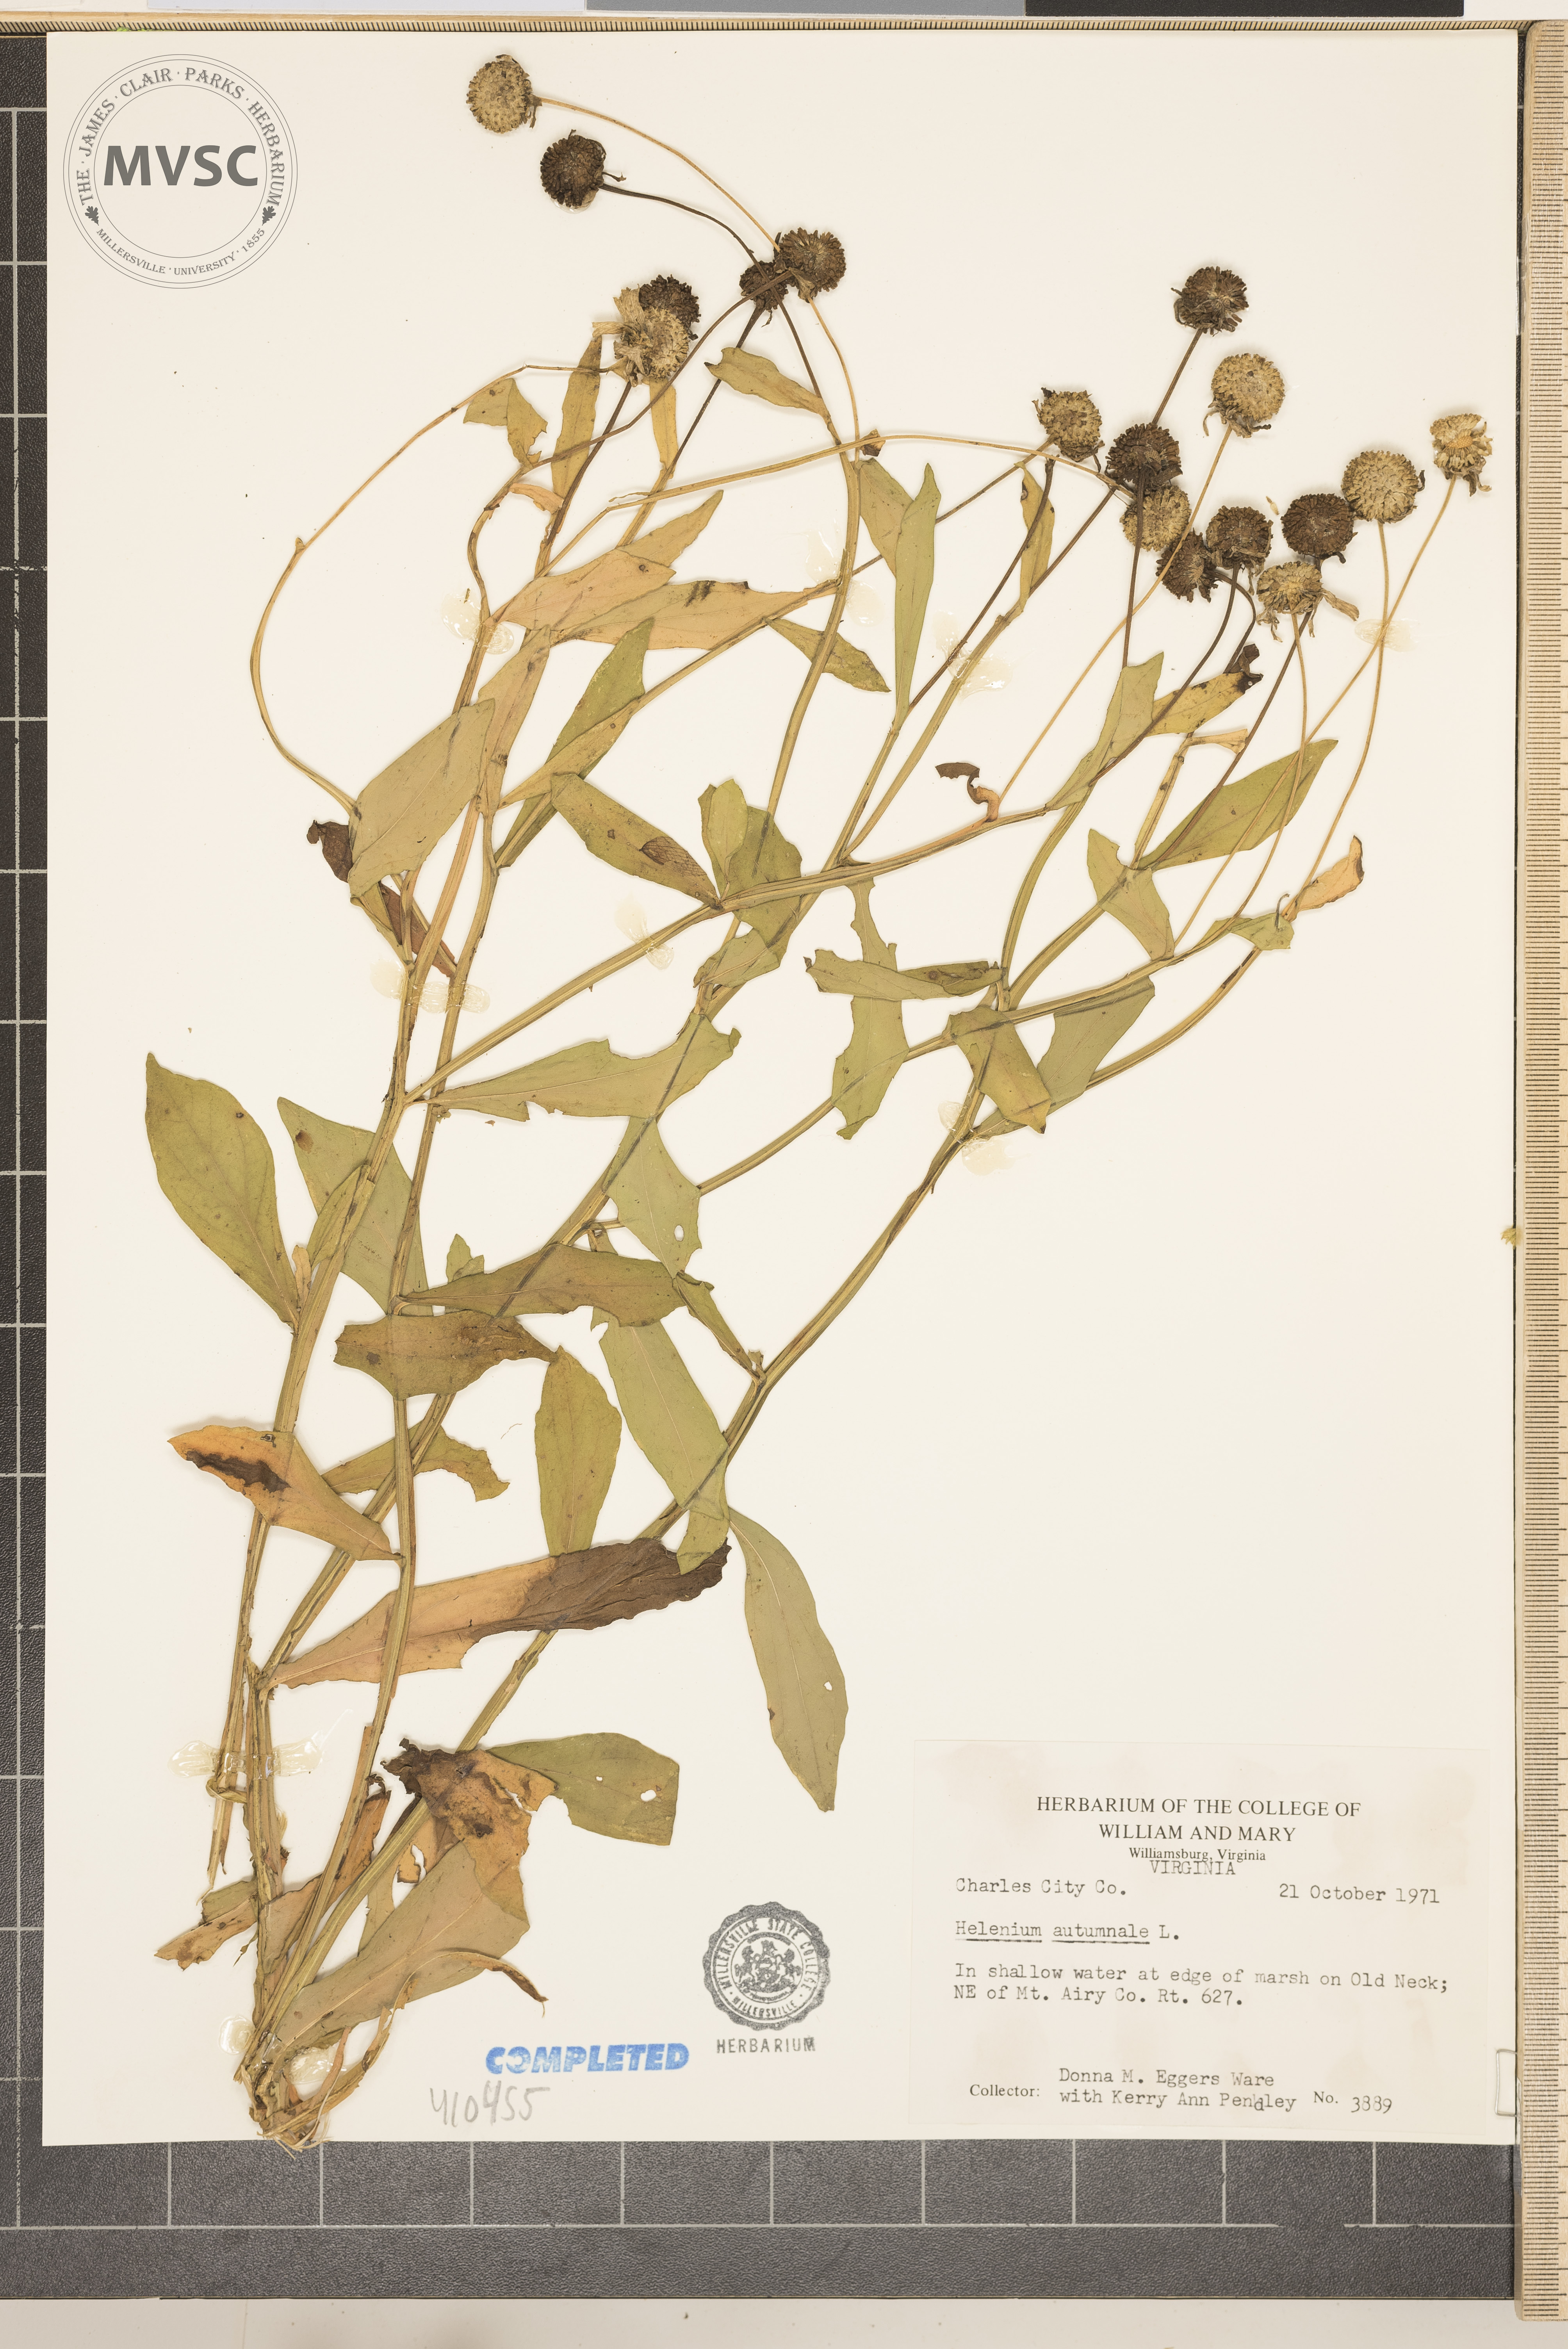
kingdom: Plantae
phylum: Tracheophyta
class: Magnoliopsida
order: Asterales
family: Asteraceae
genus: Helenium
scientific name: Helenium autumnale
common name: Sneezeweed
